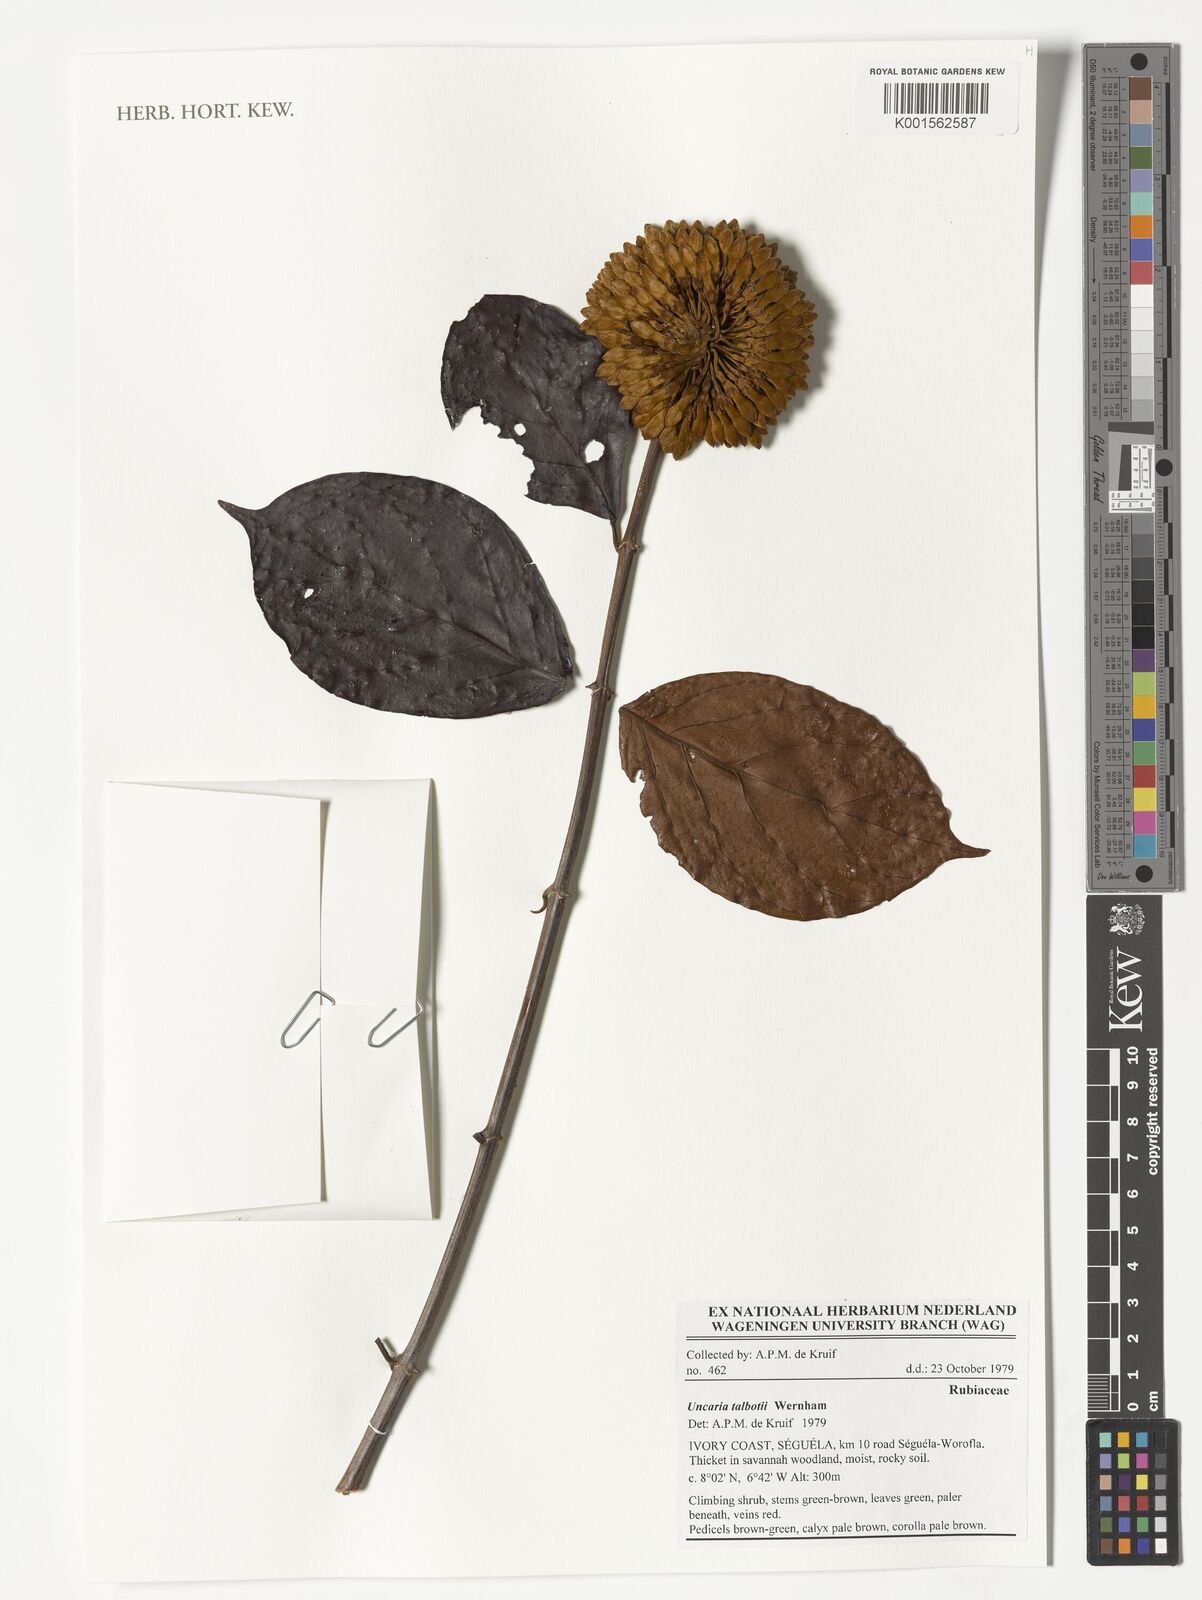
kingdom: Plantae
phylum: Tracheophyta
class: Magnoliopsida
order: Gentianales
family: Rubiaceae
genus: Uncaria
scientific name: Uncaria talbotii
